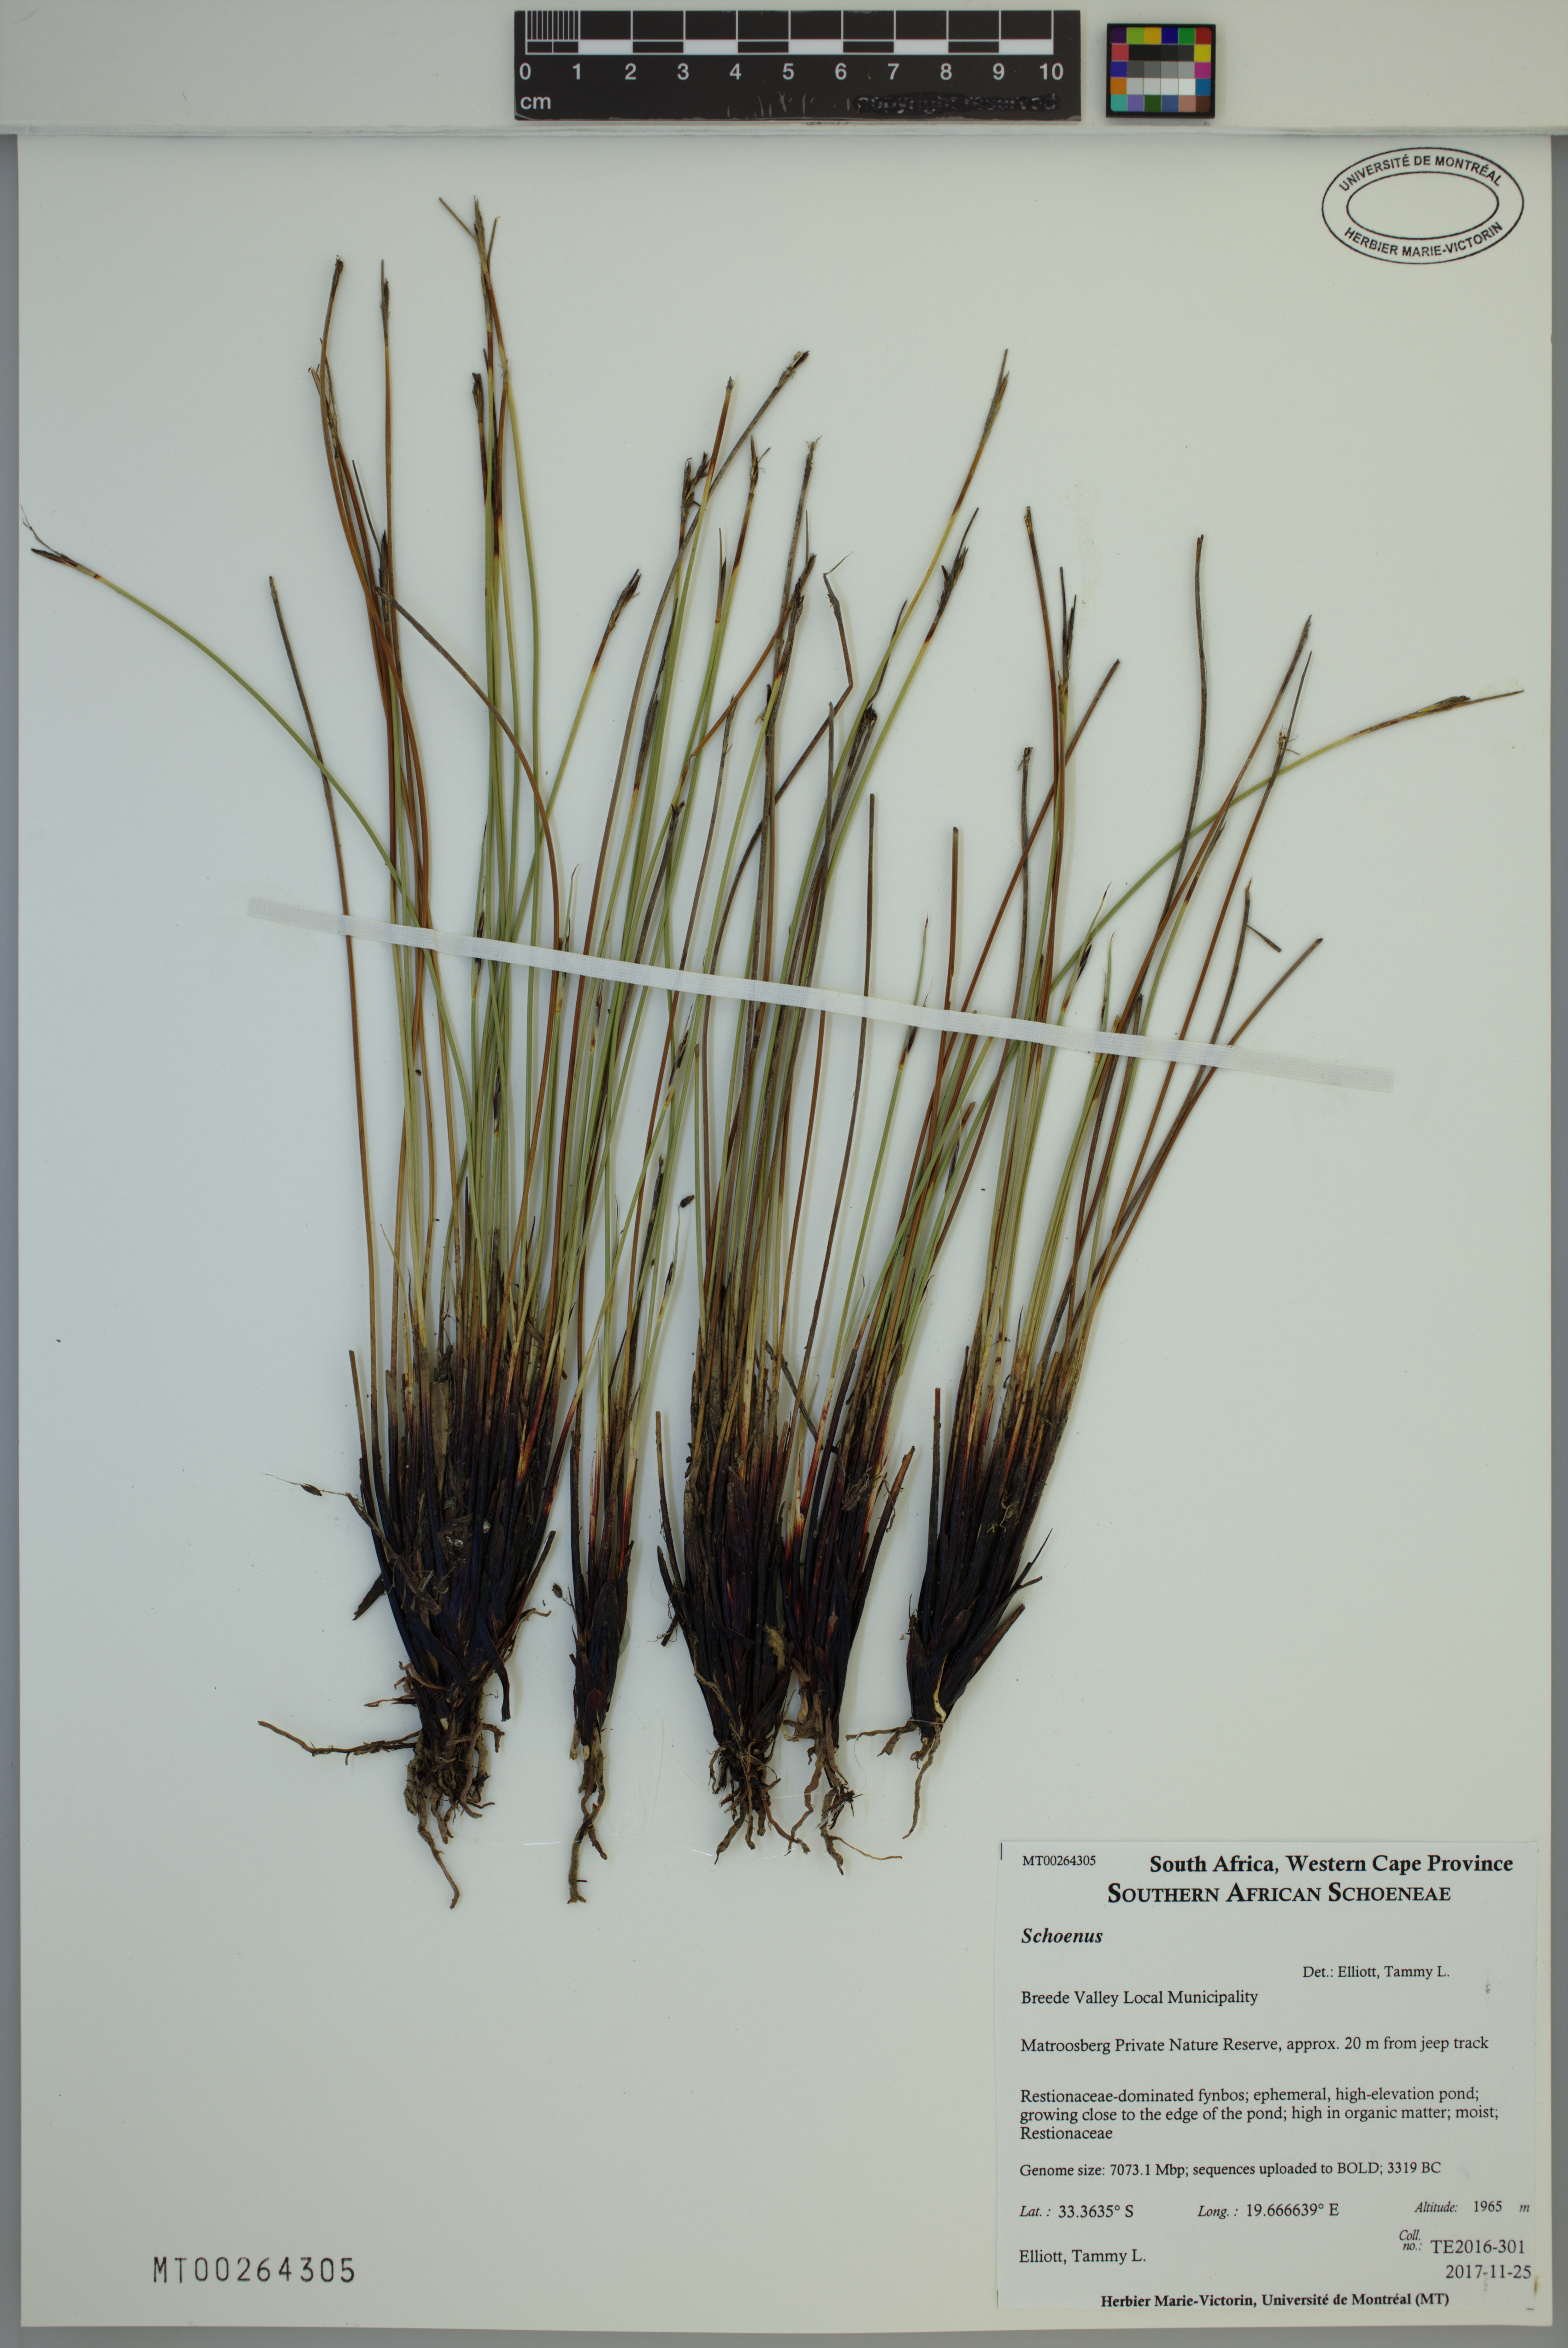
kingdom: Plantae
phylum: Tracheophyta
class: Liliopsida
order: Poales
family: Cyperaceae
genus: Schoenus
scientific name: Schoenus
